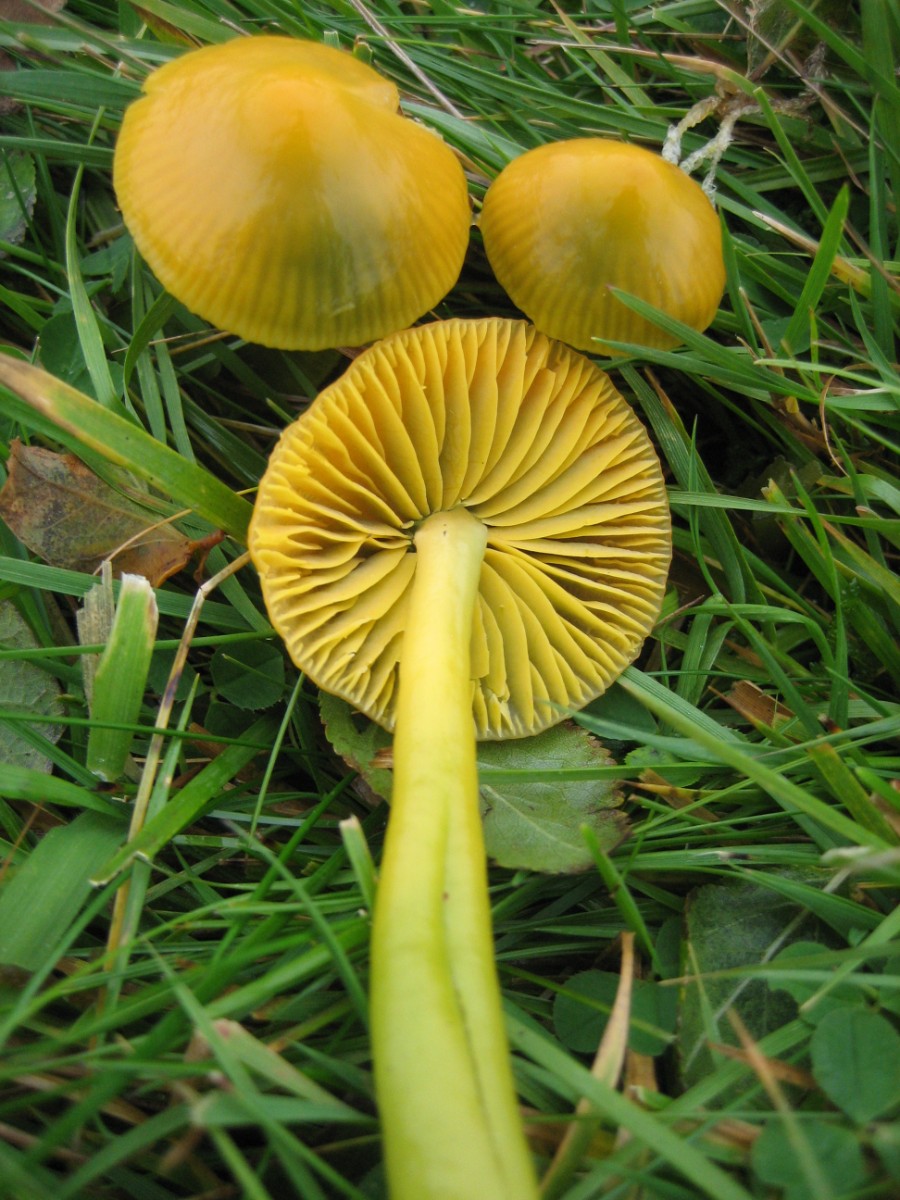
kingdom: Fungi
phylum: Basidiomycota
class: Agaricomycetes
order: Agaricales
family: Hygrophoraceae
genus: Gliophorus
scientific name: Gliophorus psittacinus
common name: papegøje-vokshat
